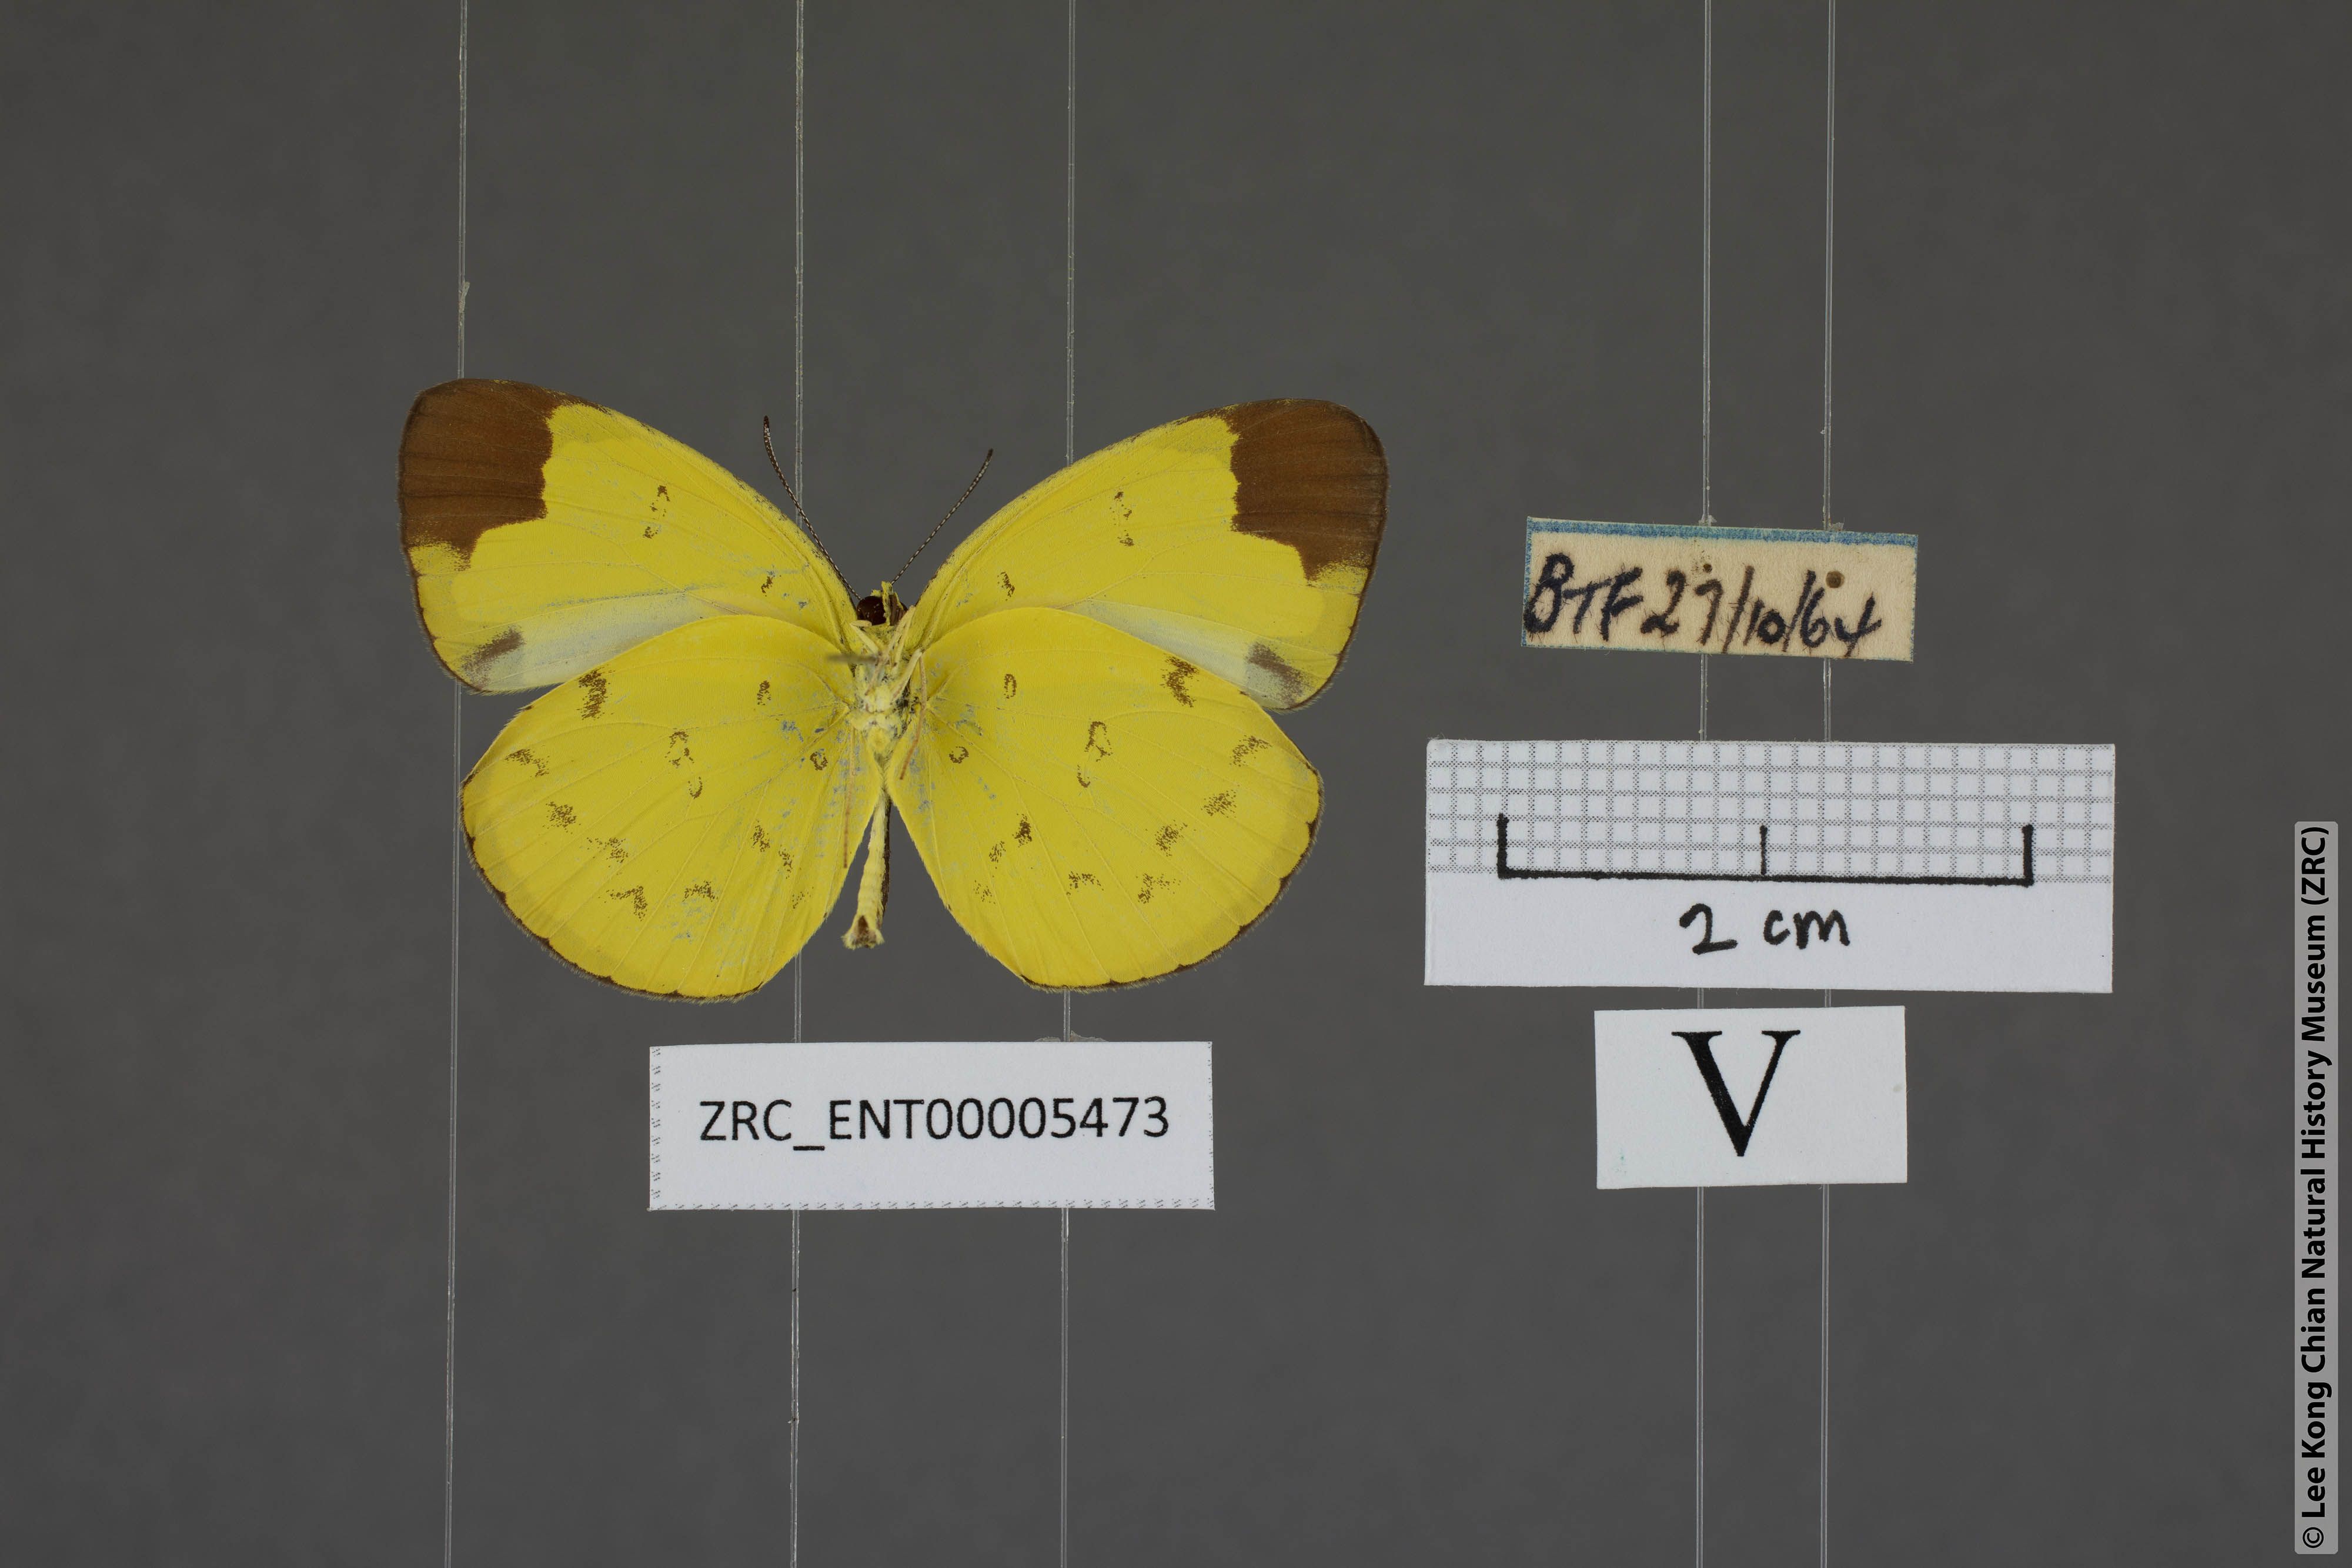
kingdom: Animalia
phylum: Arthropoda
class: Insecta
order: Lepidoptera
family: Pieridae
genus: Eurema
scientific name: Eurema sari
